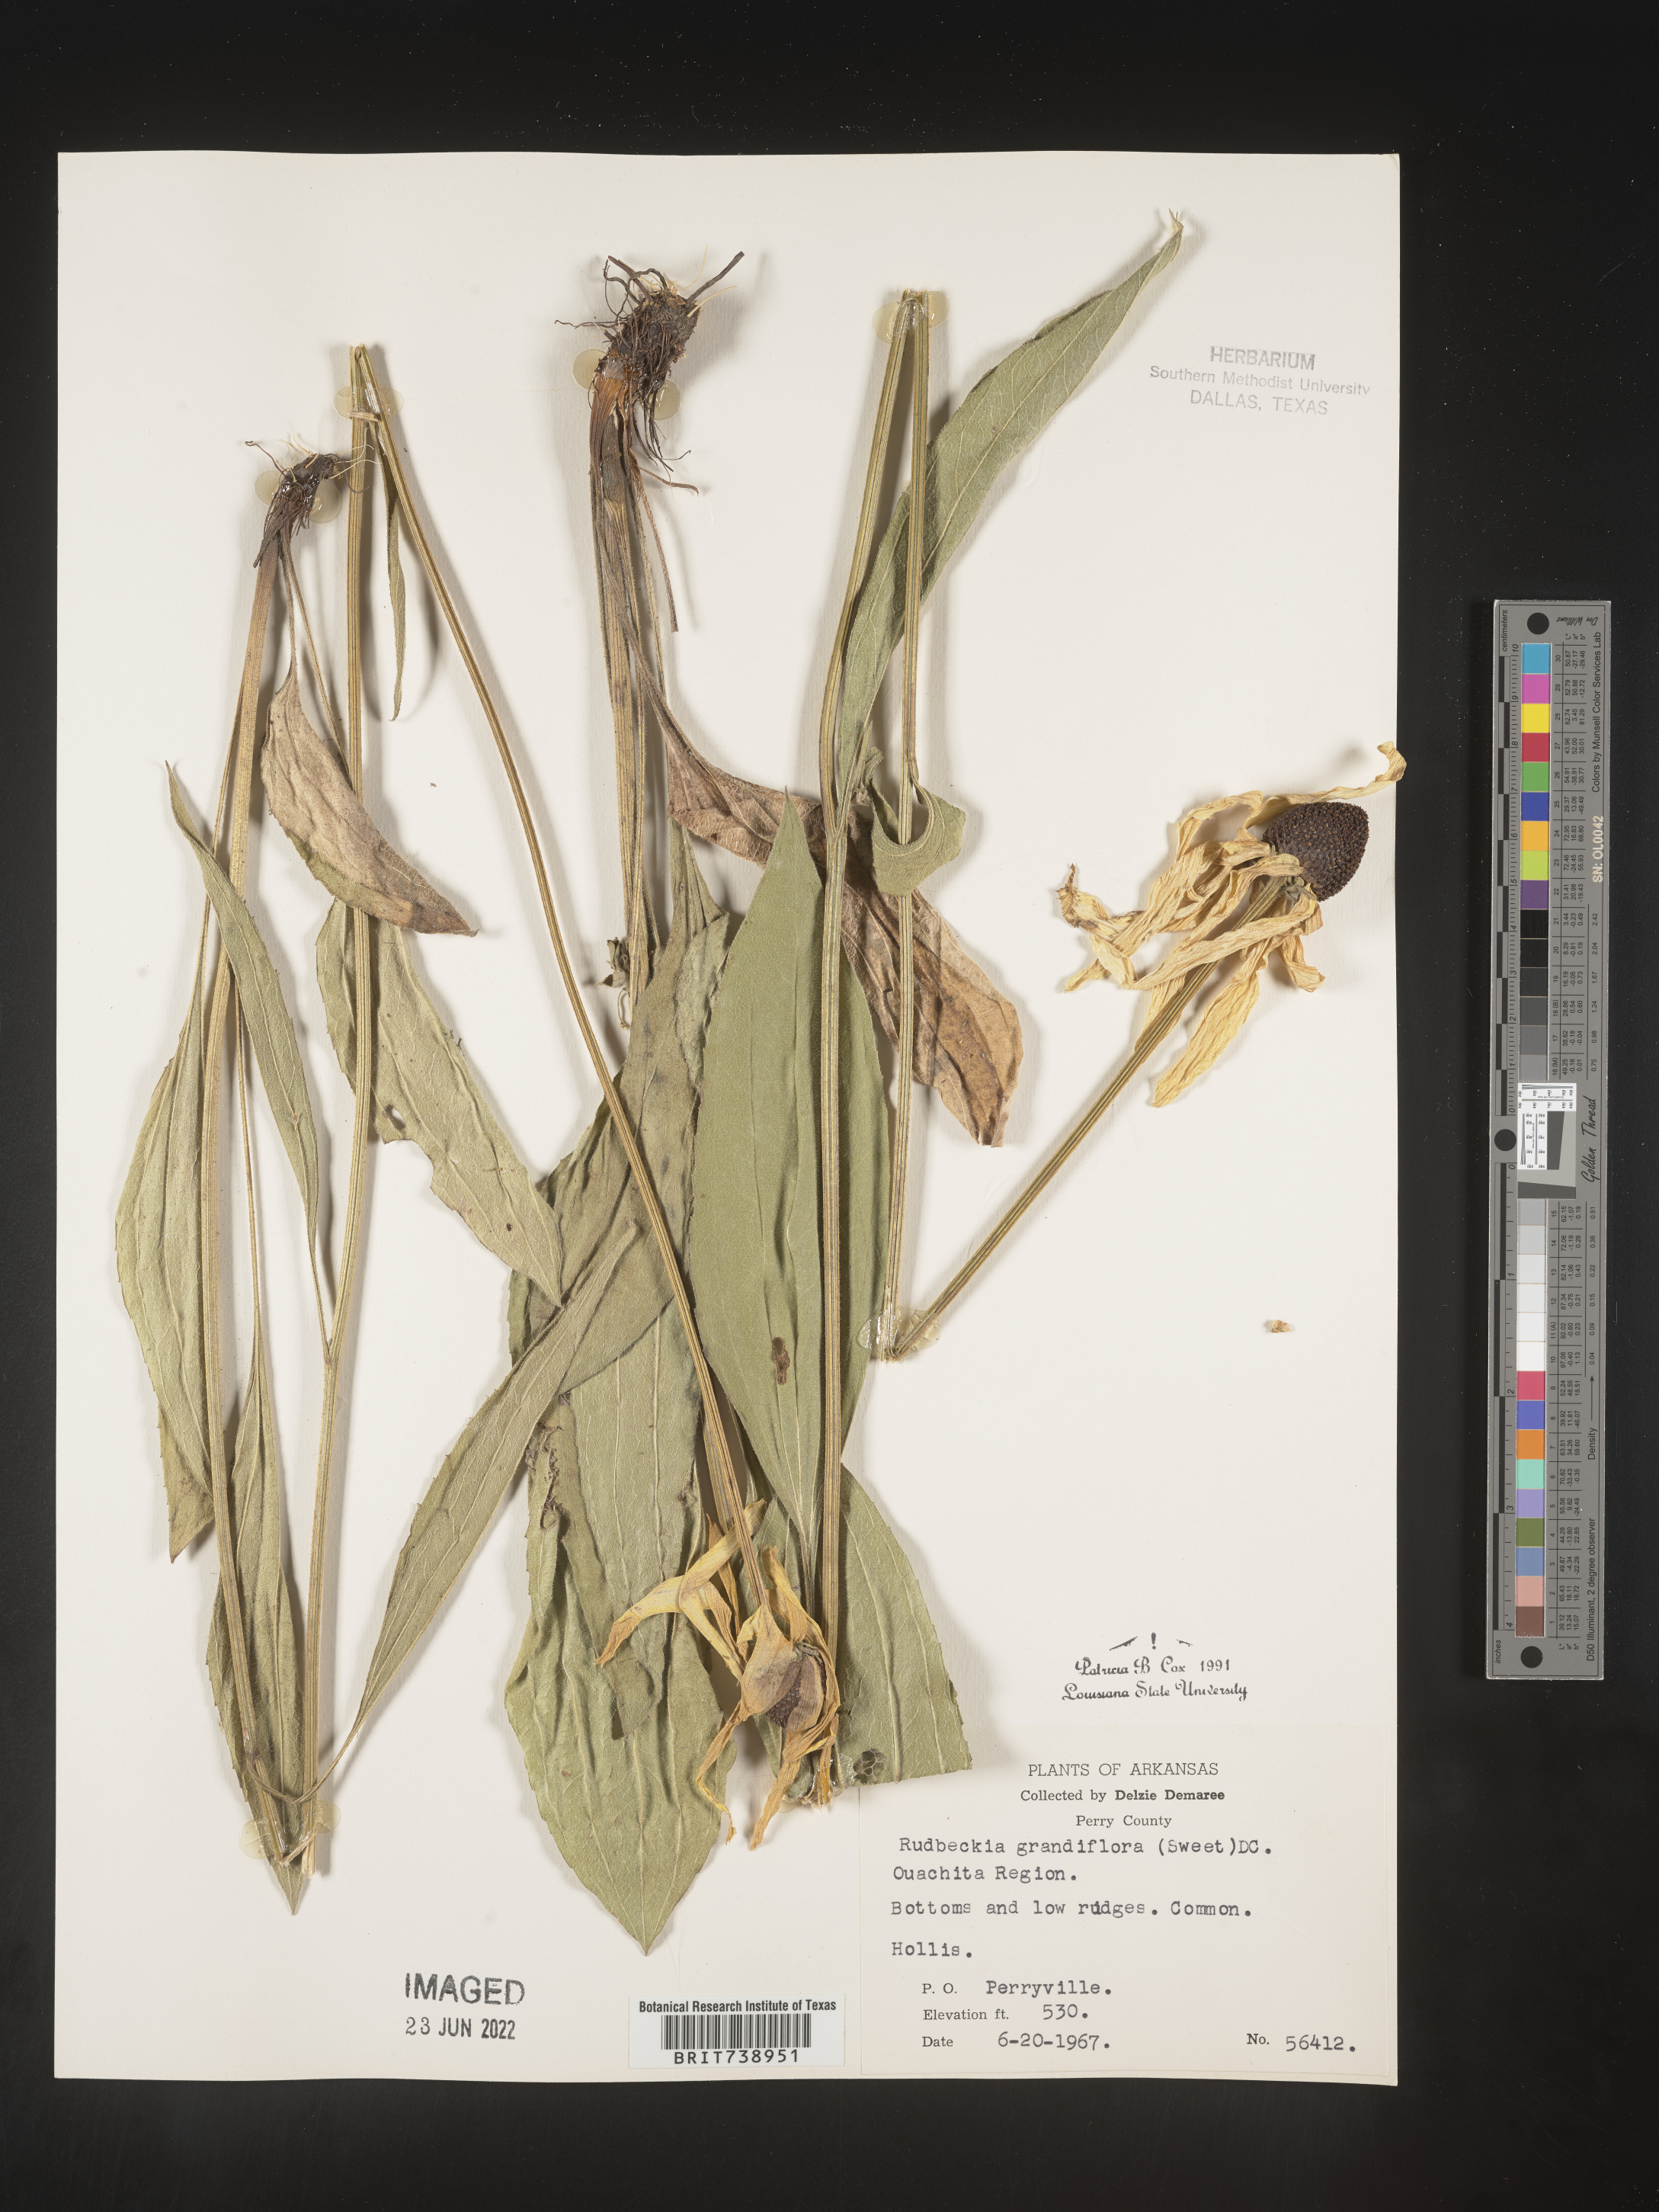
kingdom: Plantae
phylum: Tracheophyta
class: Magnoliopsida
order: Asterales
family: Asteraceae
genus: Rudbeckia
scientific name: Rudbeckia grandiflora
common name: Large-flowered coneflower
